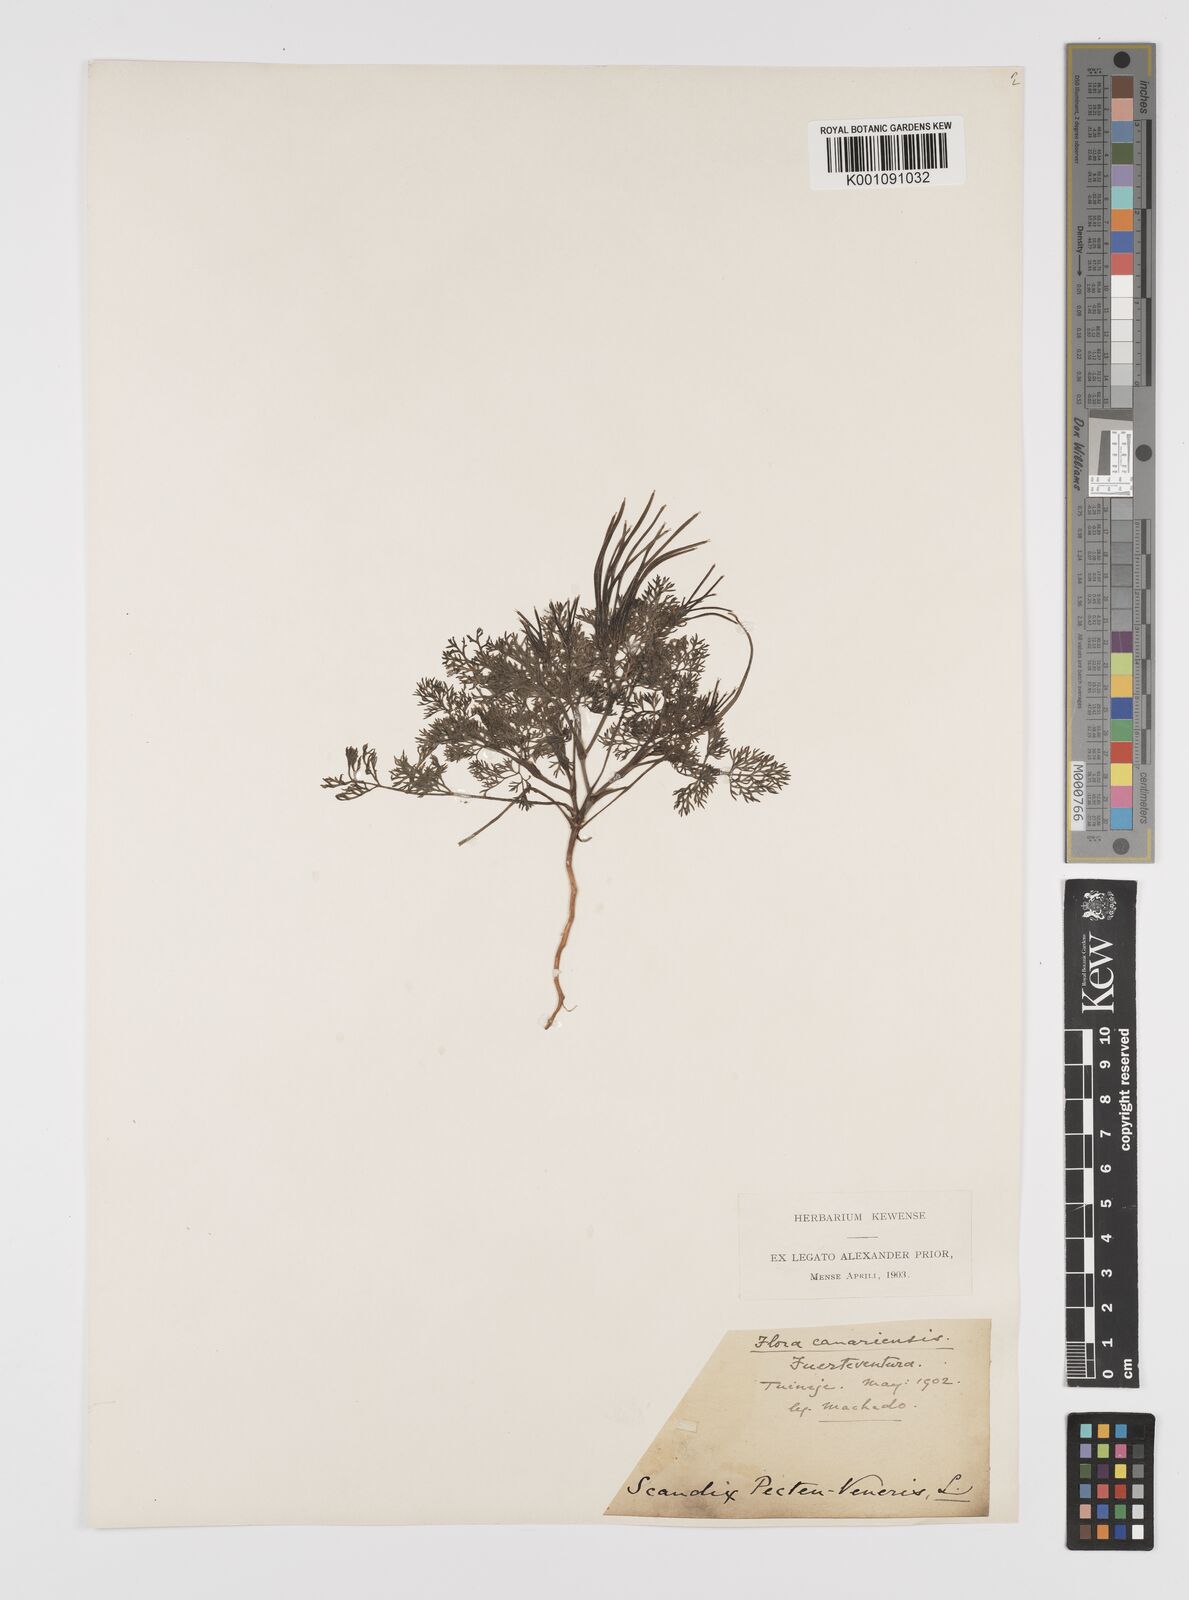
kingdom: Plantae
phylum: Tracheophyta
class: Magnoliopsida
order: Apiales
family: Apiaceae
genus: Scandix
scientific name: Scandix pecten-veneris
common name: Shepherd's-needle
